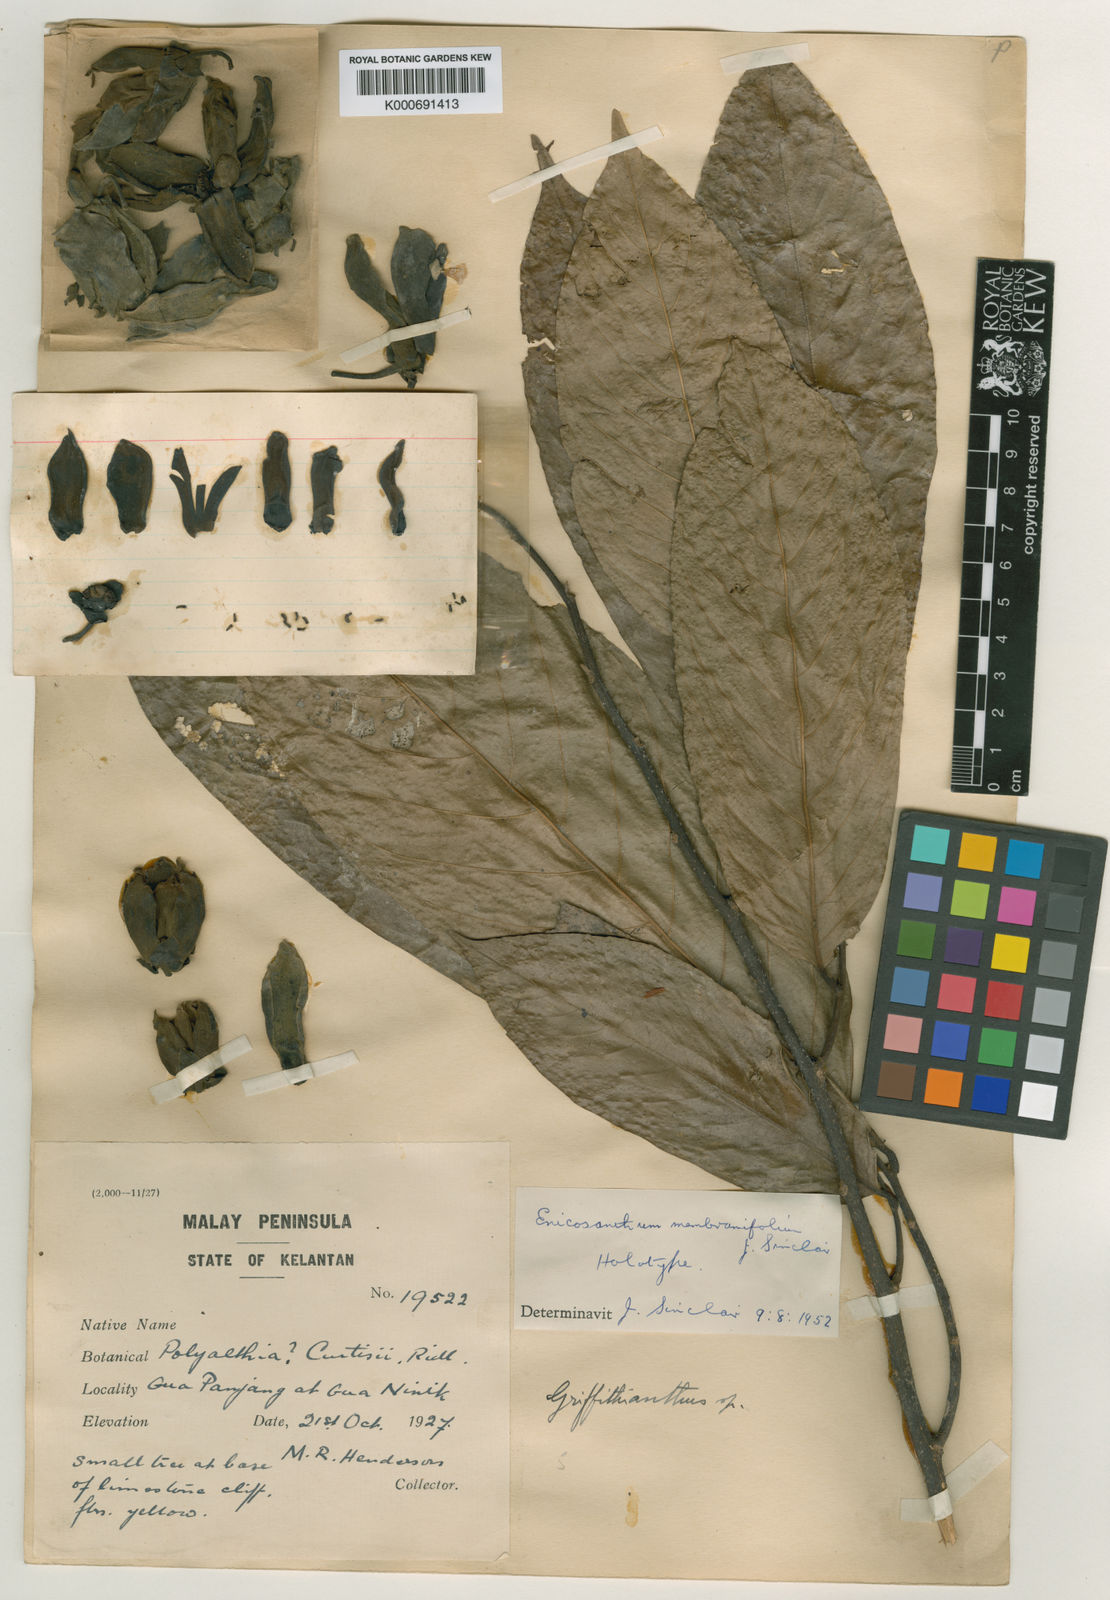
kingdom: Plantae
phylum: Tracheophyta
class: Magnoliopsida
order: Magnoliales
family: Annonaceae
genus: Enicosanthum
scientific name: Enicosanthum membranifolium
